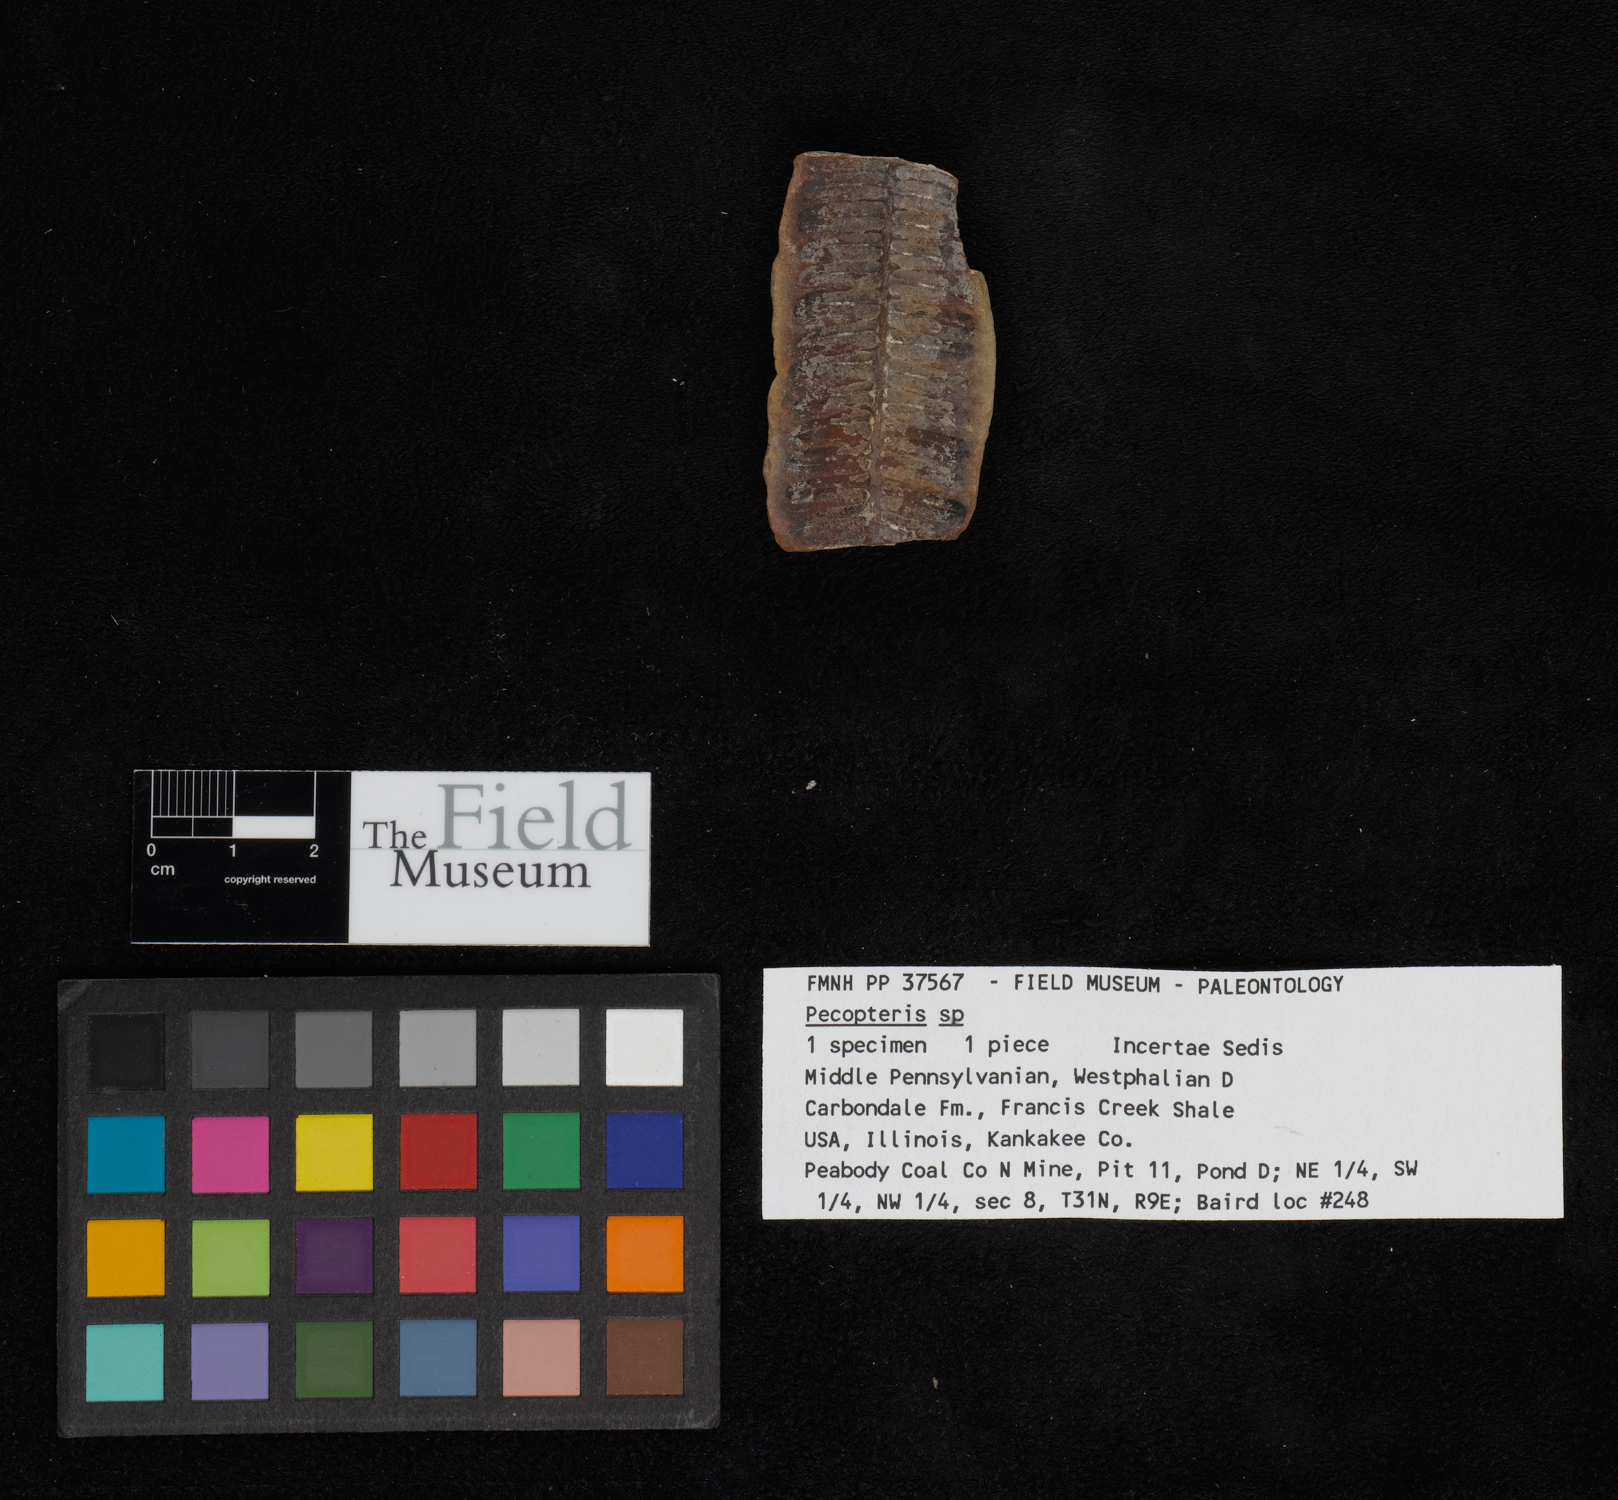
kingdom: Plantae
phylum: Tracheophyta
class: Polypodiopsida
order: Marattiales
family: Asterothecaceae
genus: Pecopteris
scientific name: Pecopteris
